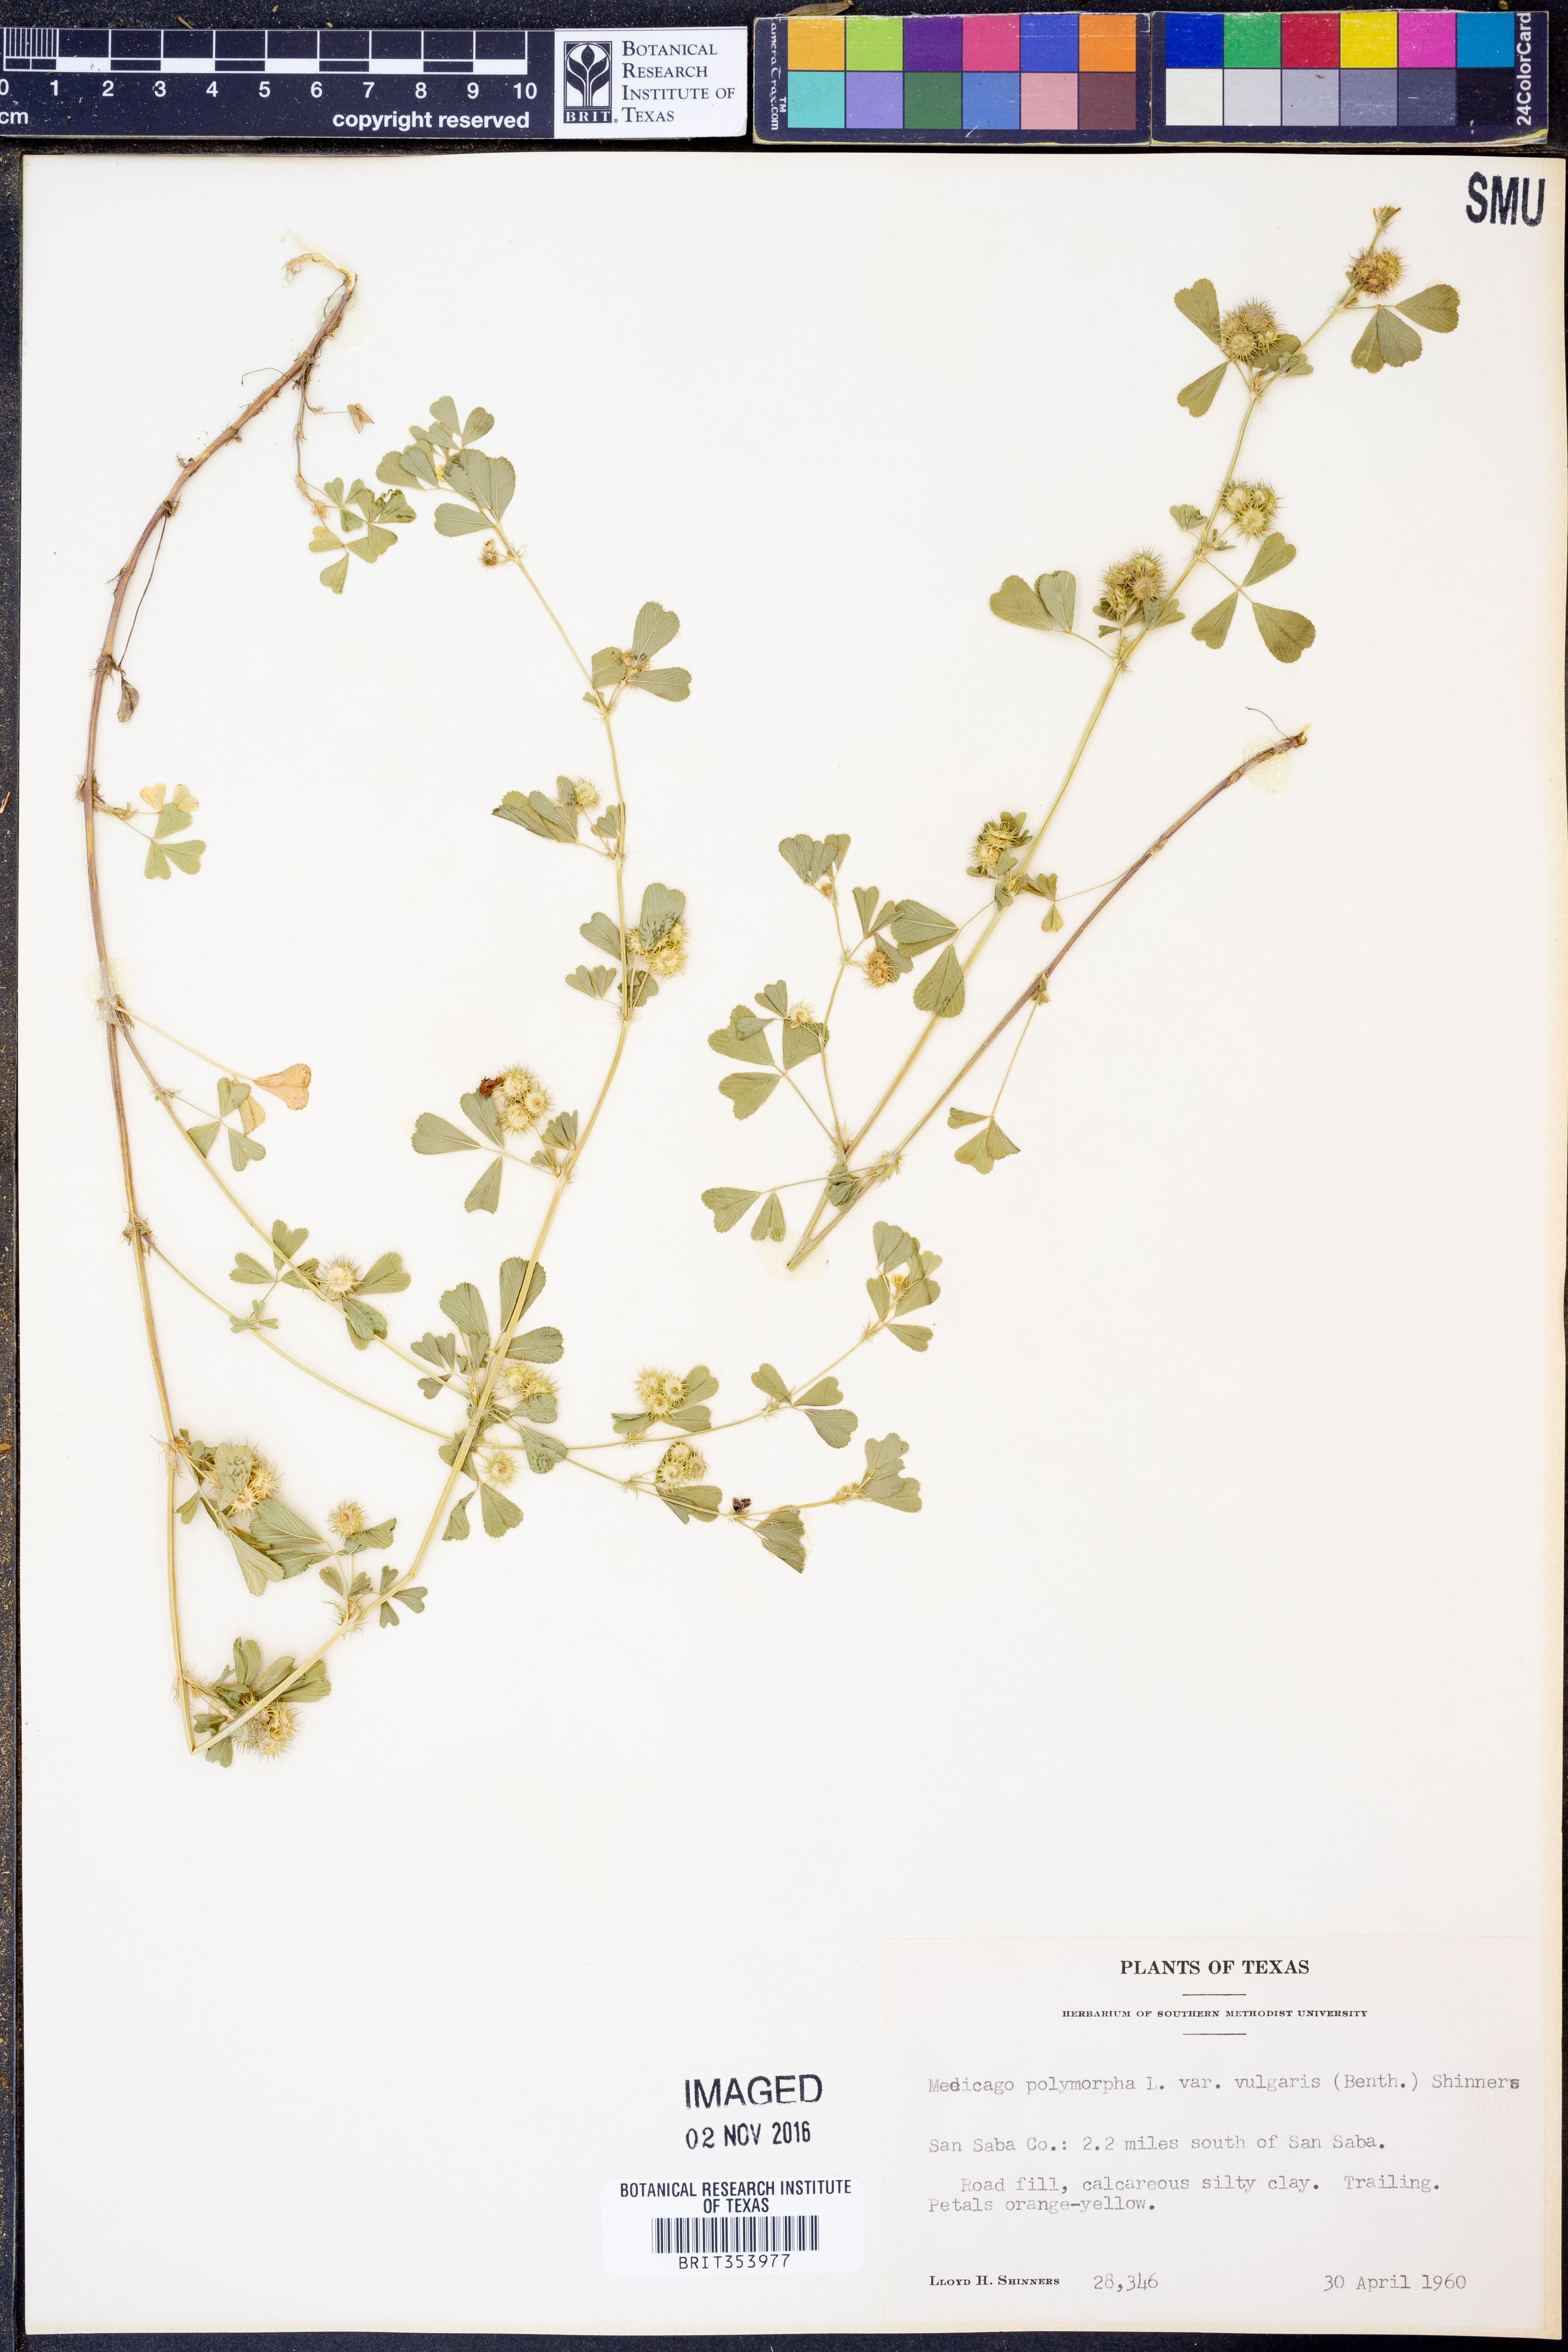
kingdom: Plantae
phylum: Tracheophyta
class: Magnoliopsida
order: Fabales
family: Fabaceae
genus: Medicago
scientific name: Medicago polymorpha
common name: Burclover
